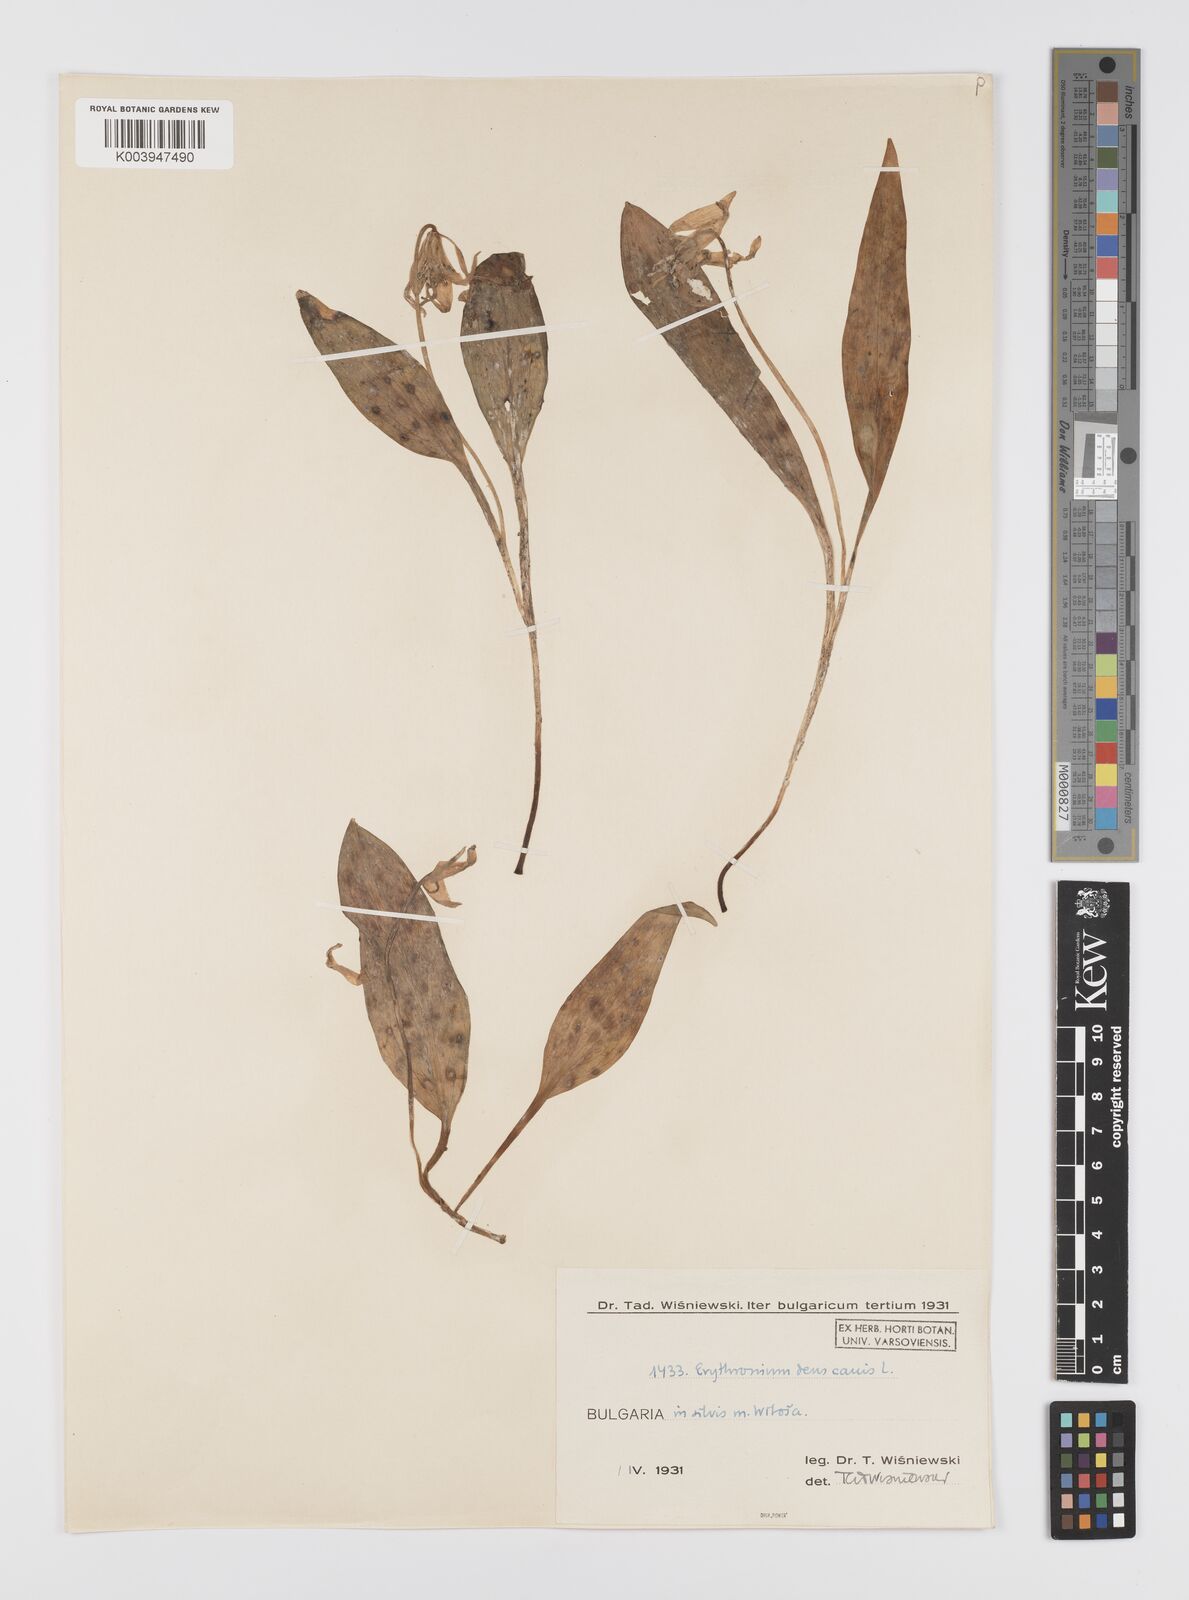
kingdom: Plantae
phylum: Tracheophyta
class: Liliopsida
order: Liliales
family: Liliaceae
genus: Erythronium
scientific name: Erythronium dens-canis
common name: Dog's-tooth-violet
